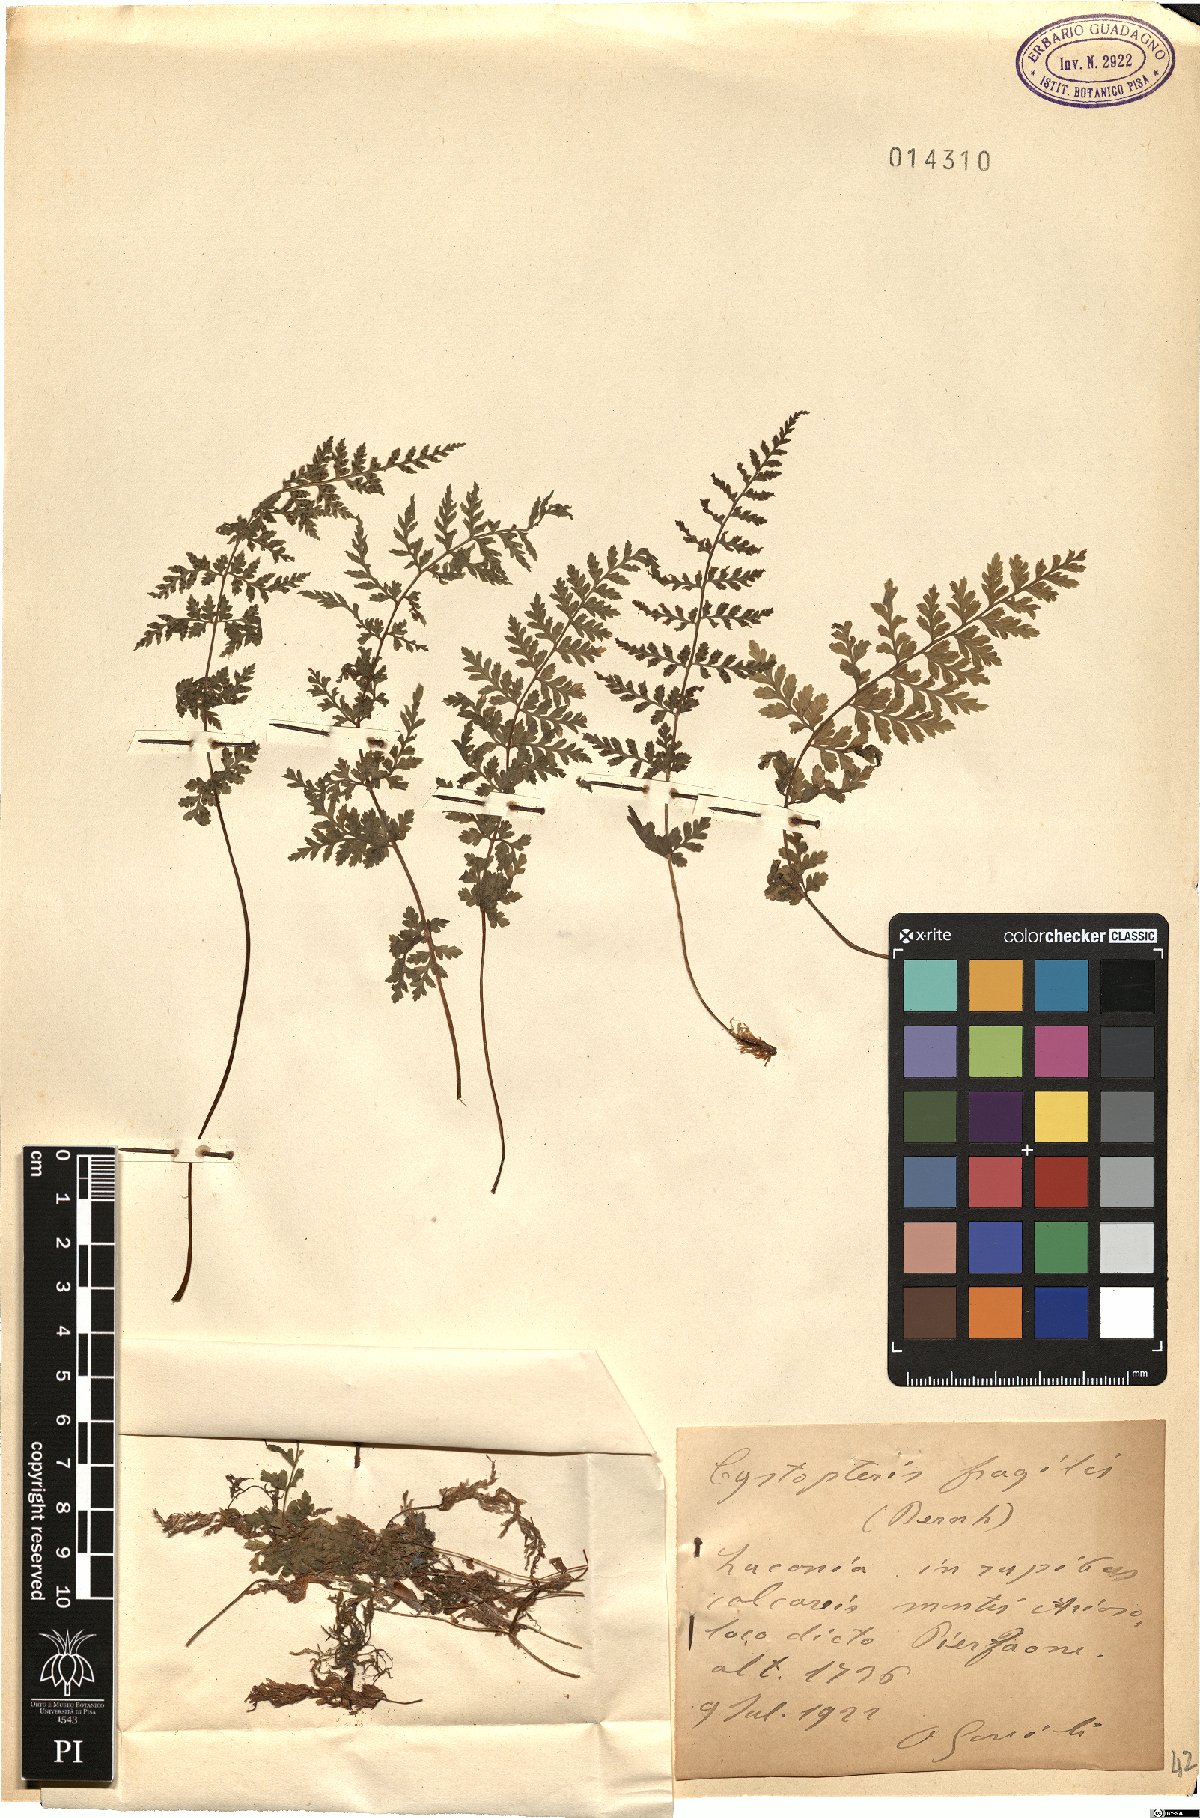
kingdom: Plantae
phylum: Tracheophyta
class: Polypodiopsida
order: Polypodiales
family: Cystopteridaceae
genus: Cystopteris
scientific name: Cystopteris fragilis
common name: Brittle bladder fern
